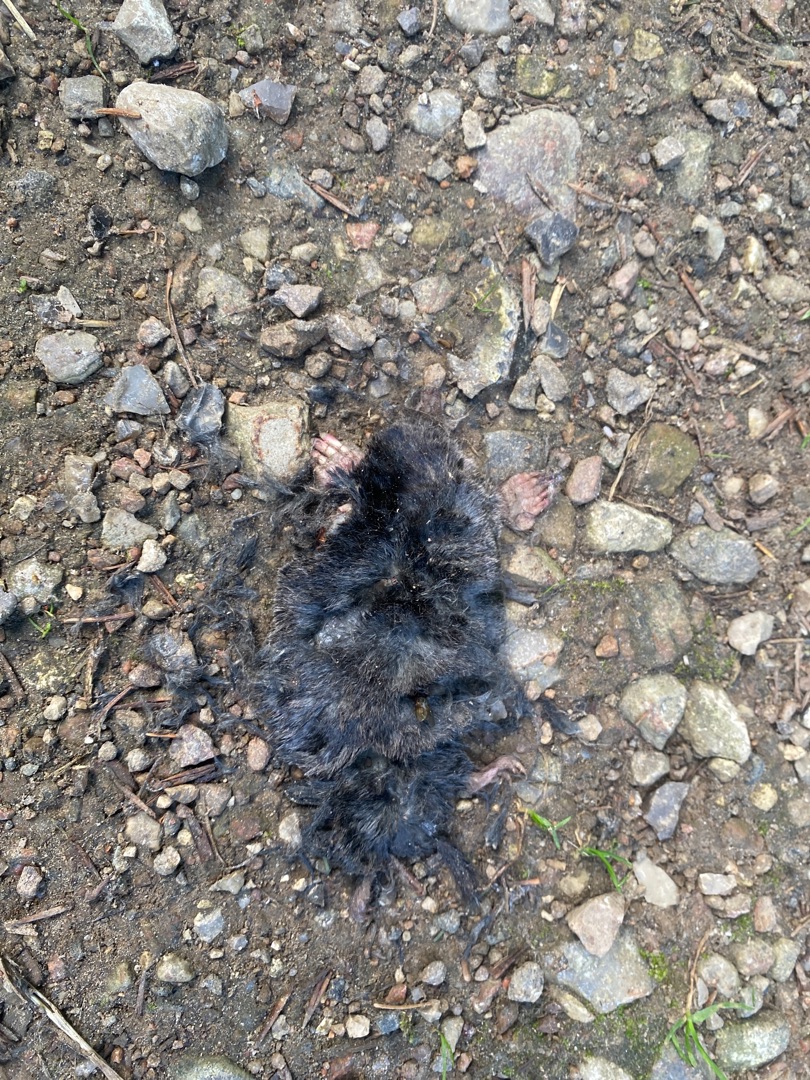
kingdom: Animalia
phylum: Chordata
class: Mammalia
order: Soricomorpha
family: Talpidae
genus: Talpa
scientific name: Talpa europaea
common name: Muldvarp
